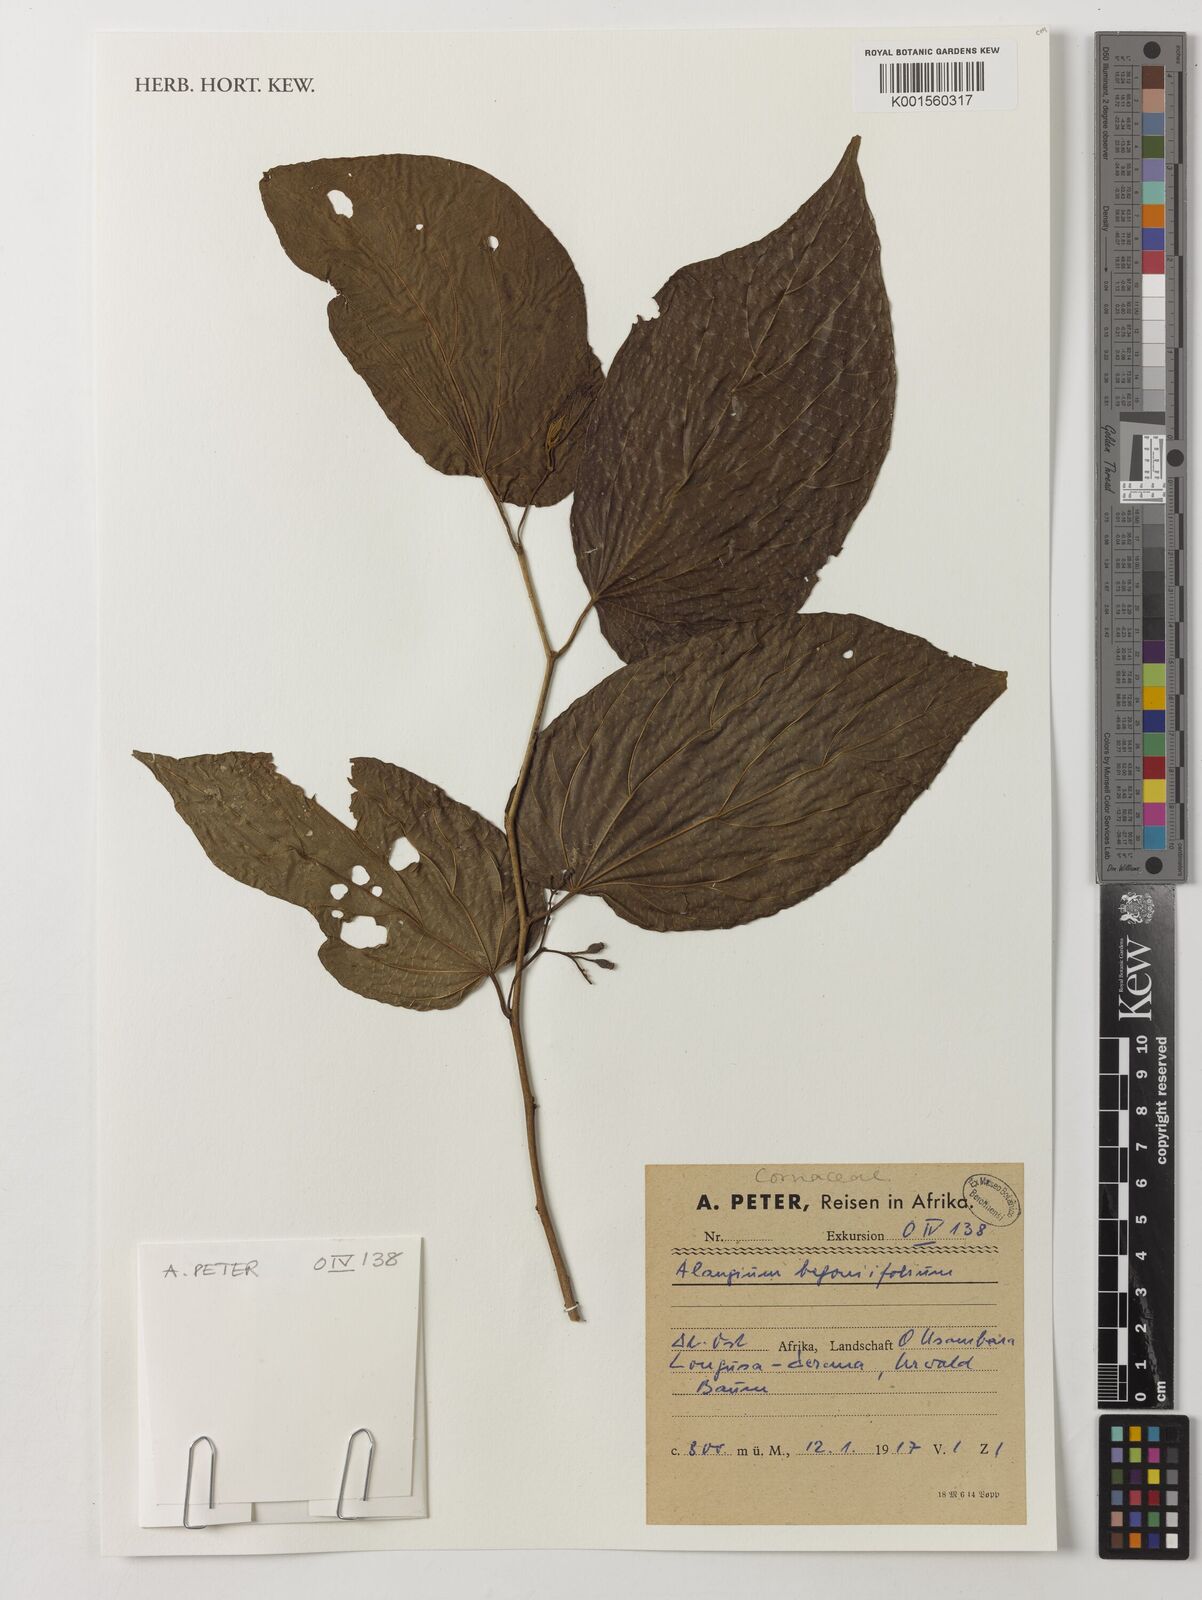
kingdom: Plantae
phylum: Tracheophyta
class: Magnoliopsida
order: Cornales
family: Cornaceae
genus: Alangium
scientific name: Alangium chinense
